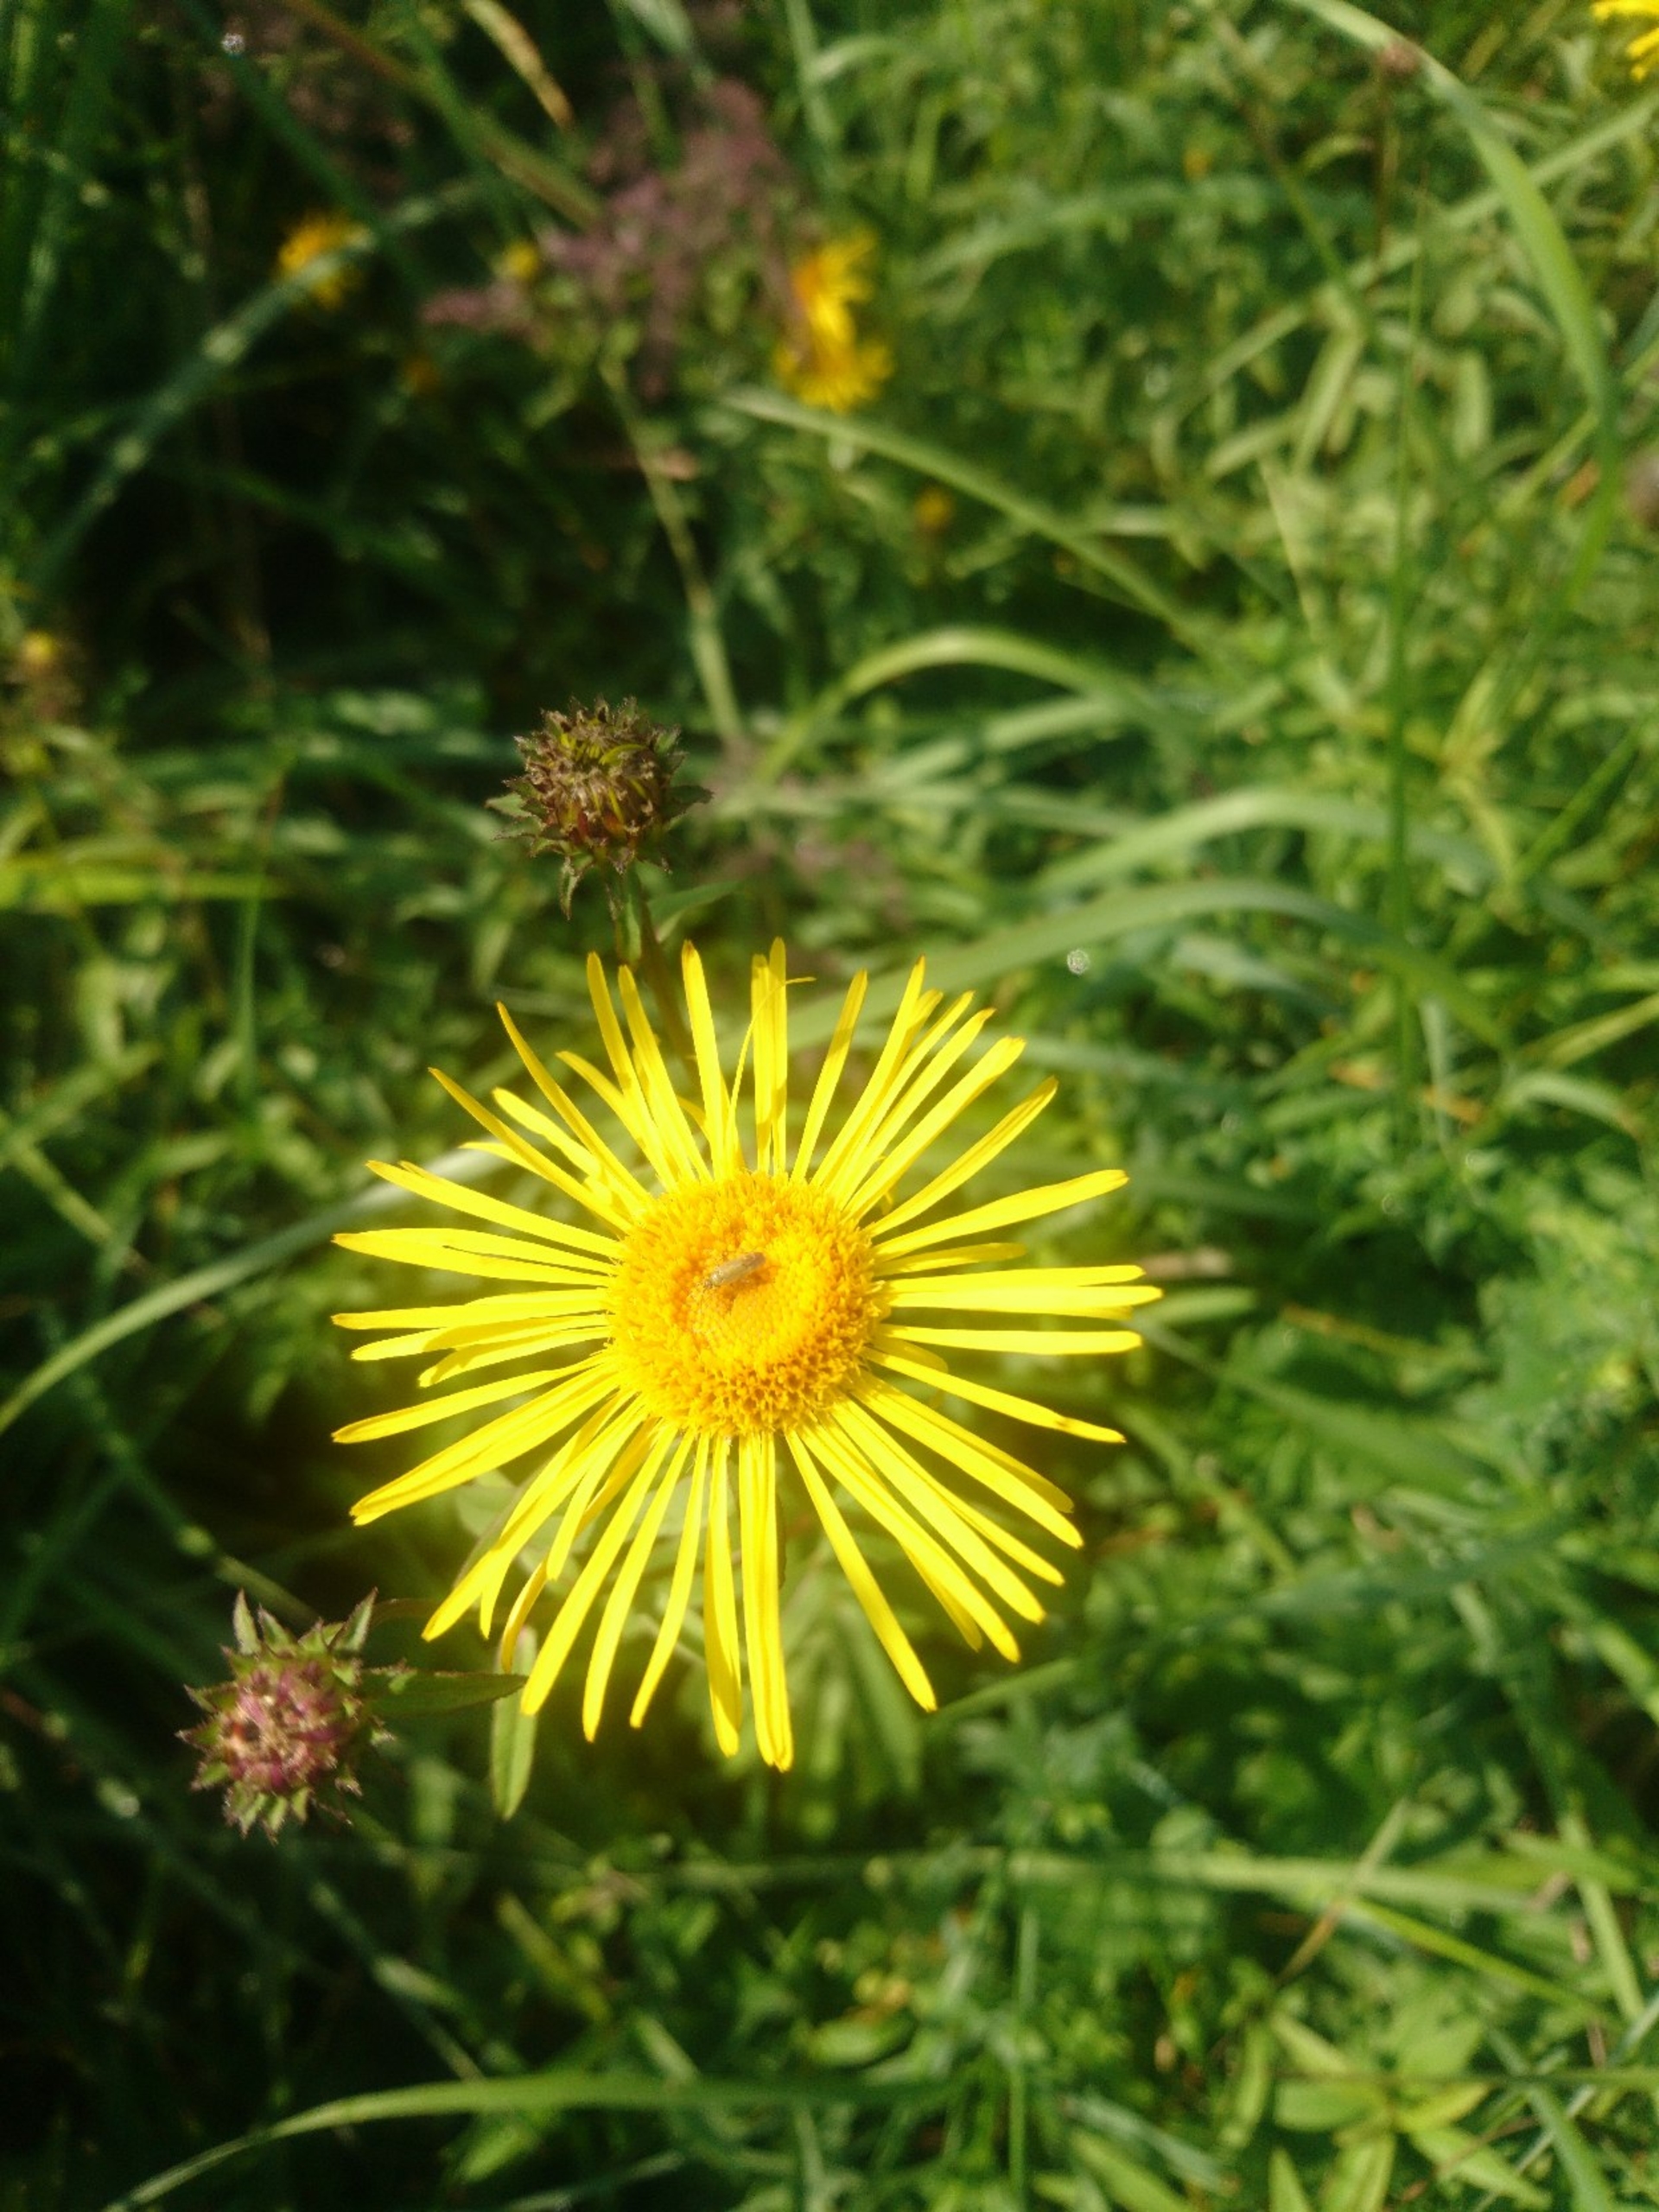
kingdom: Plantae
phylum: Tracheophyta
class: Magnoliopsida
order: Asterales
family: Asteraceae
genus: Pentanema
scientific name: Pentanema salicinum
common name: Pile-alant
